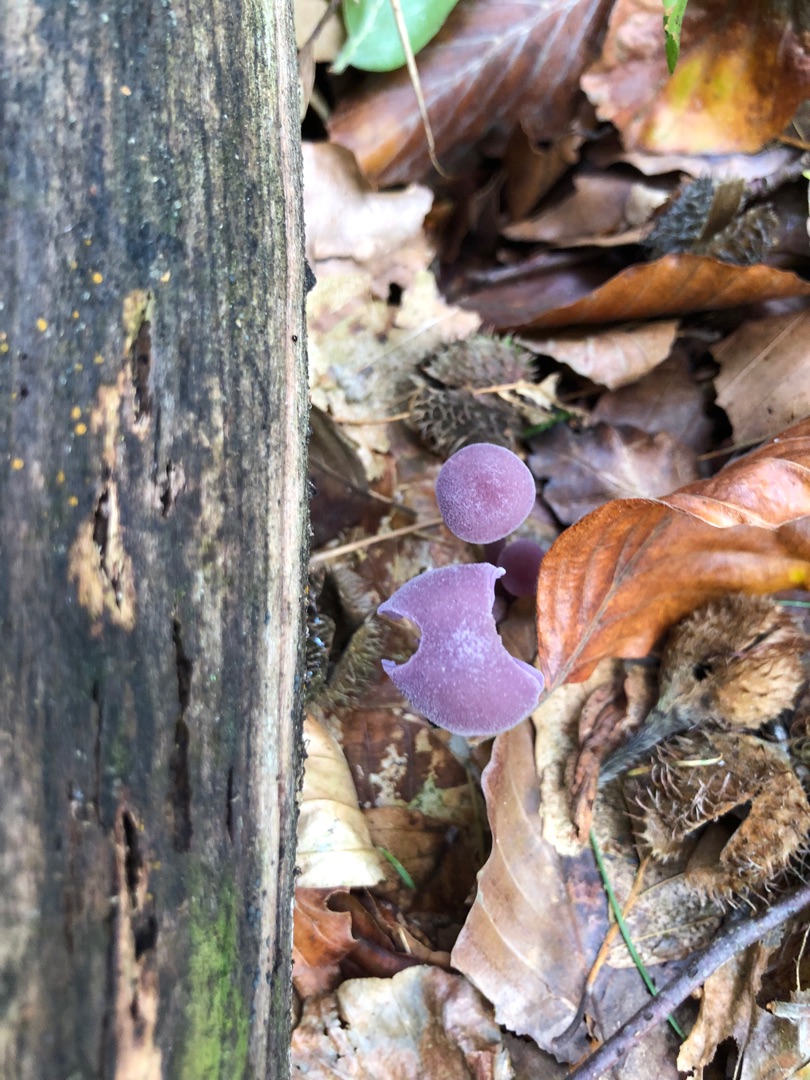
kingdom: Fungi
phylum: Basidiomycota
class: Agaricomycetes
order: Agaricales
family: Hydnangiaceae
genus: Laccaria
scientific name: Laccaria amethystina
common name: Violet ametysthat
